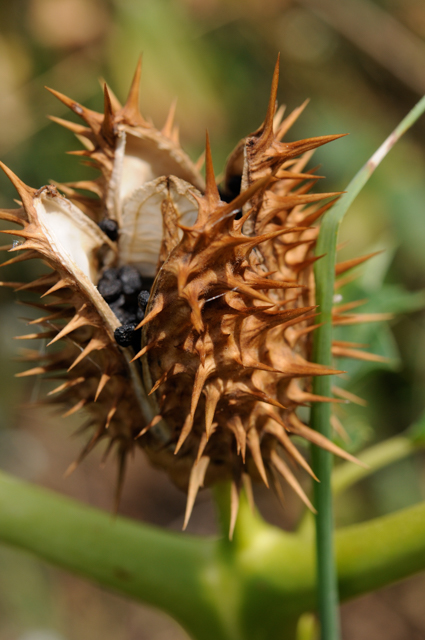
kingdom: Plantae
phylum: Tracheophyta
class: Magnoliopsida
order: Solanales
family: Solanaceae
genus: Datura
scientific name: Datura stramonium
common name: Thorn-apple
